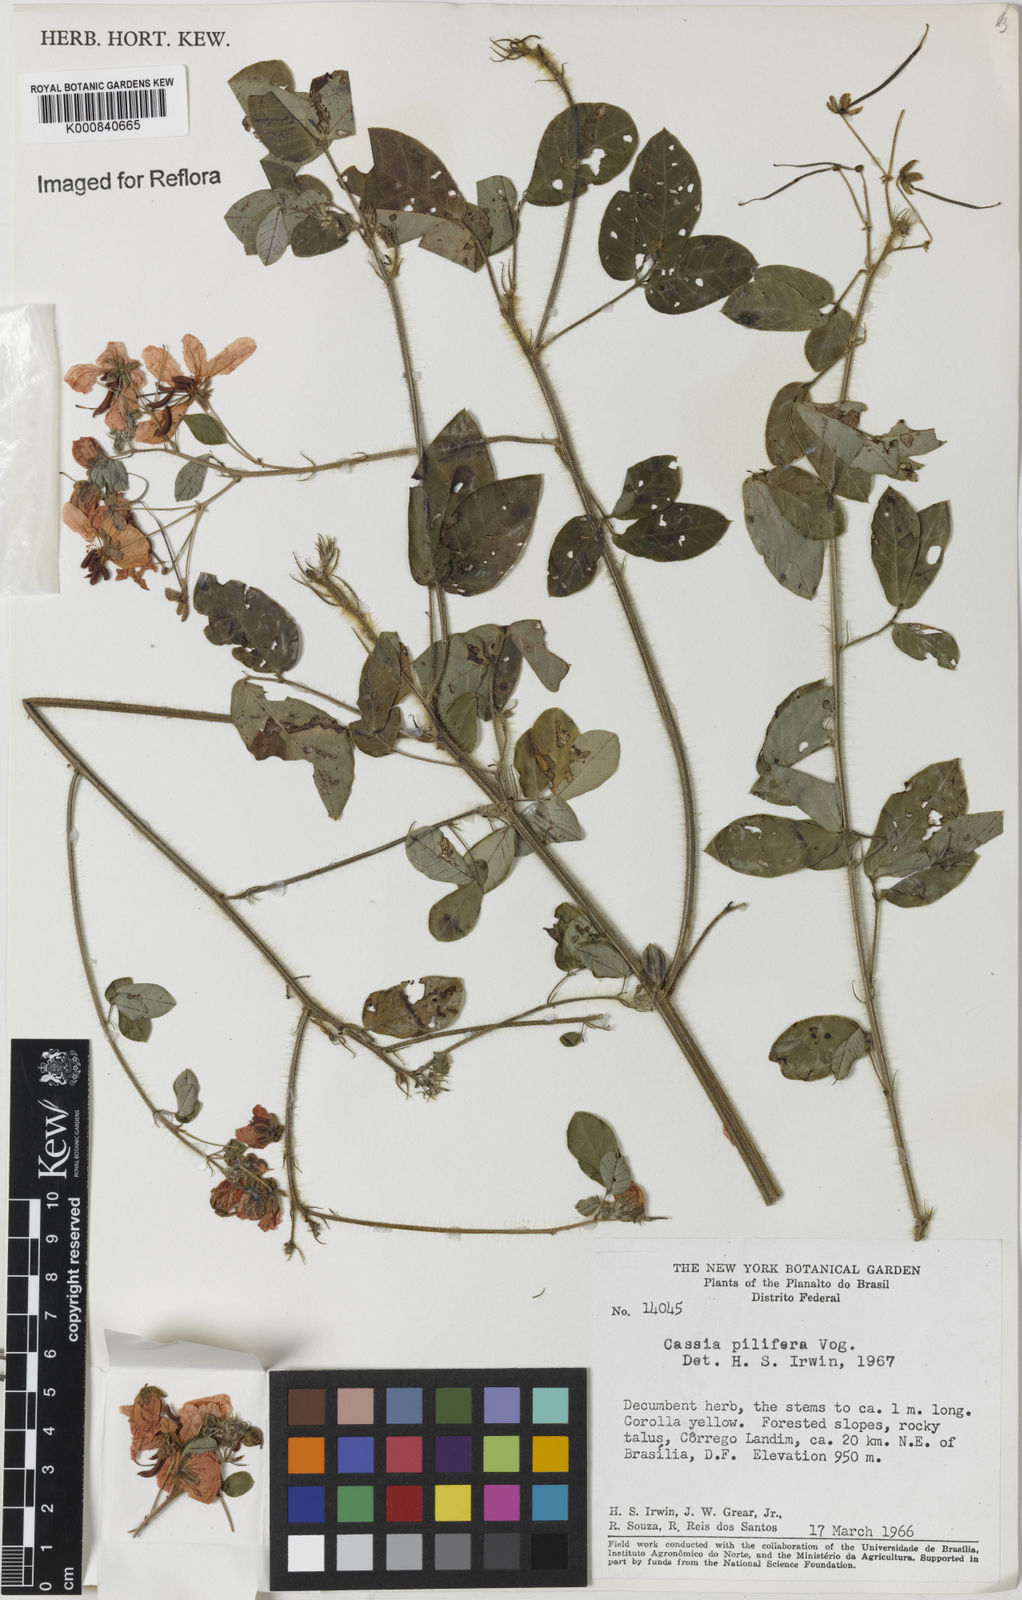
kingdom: Plantae
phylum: Tracheophyta
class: Magnoliopsida
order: Fabales
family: Fabaceae
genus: Senna
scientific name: Senna pilifera
